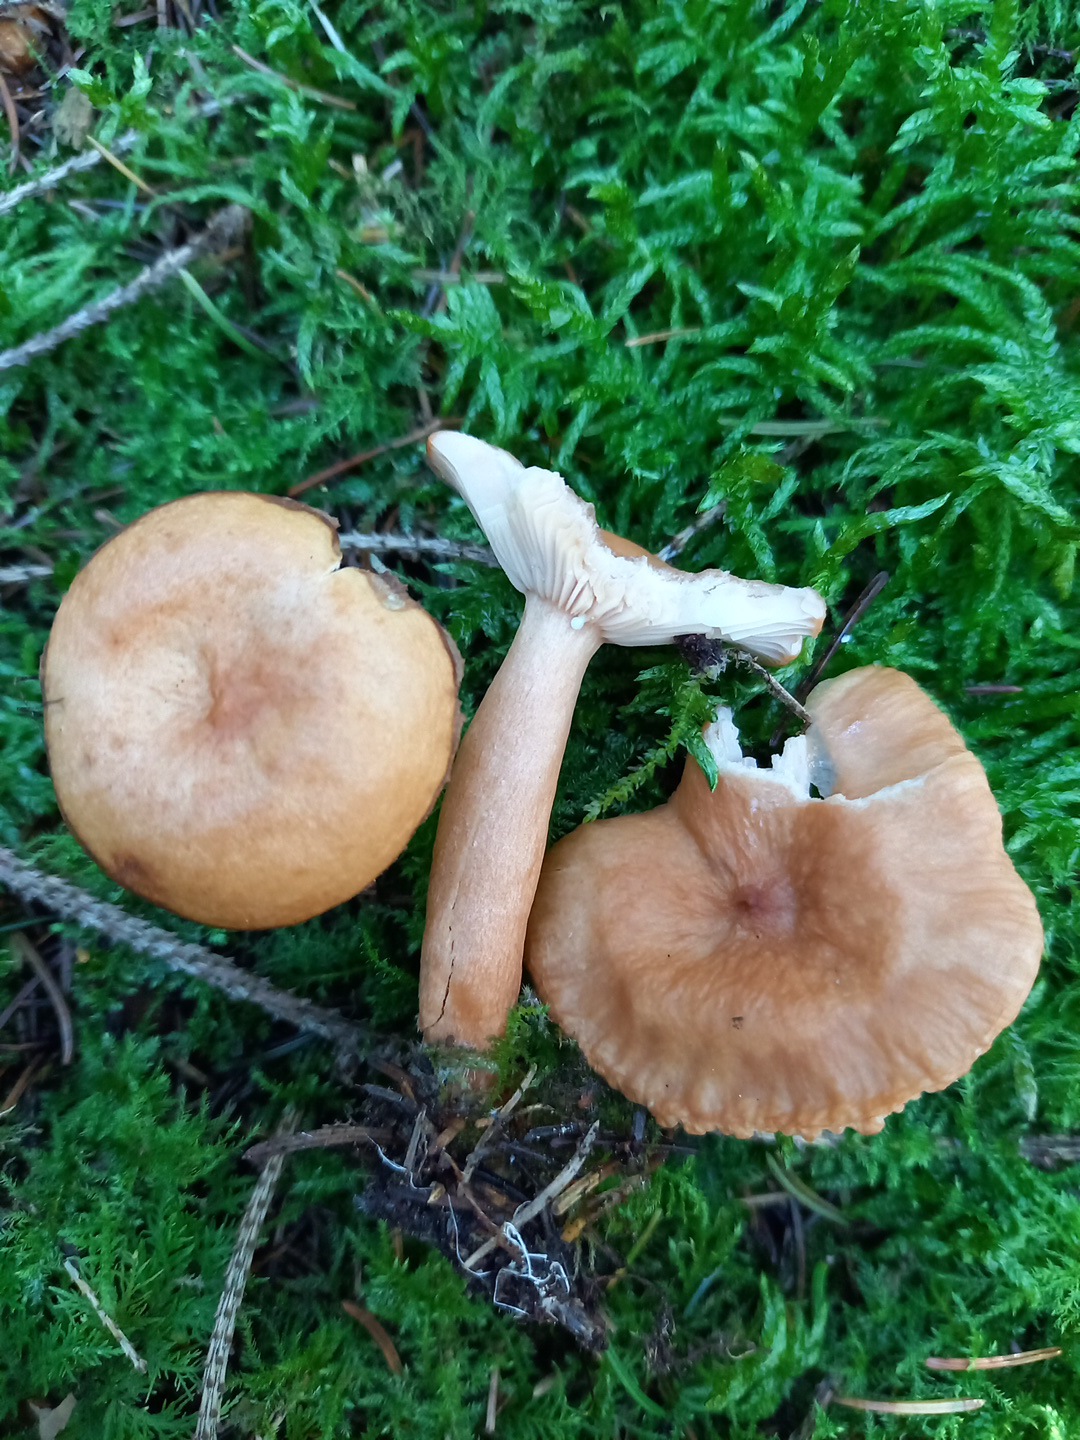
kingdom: Fungi
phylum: Basidiomycota
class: Agaricomycetes
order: Russulales
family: Russulaceae
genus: Lactarius
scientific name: Lactarius tabidus
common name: rynket mælkehat
